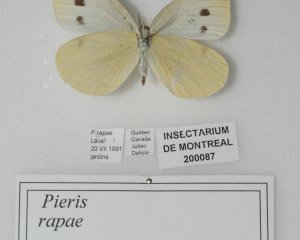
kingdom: Animalia
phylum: Arthropoda
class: Insecta
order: Lepidoptera
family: Pieridae
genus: Pieris
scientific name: Pieris rapae
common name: Cabbage White
